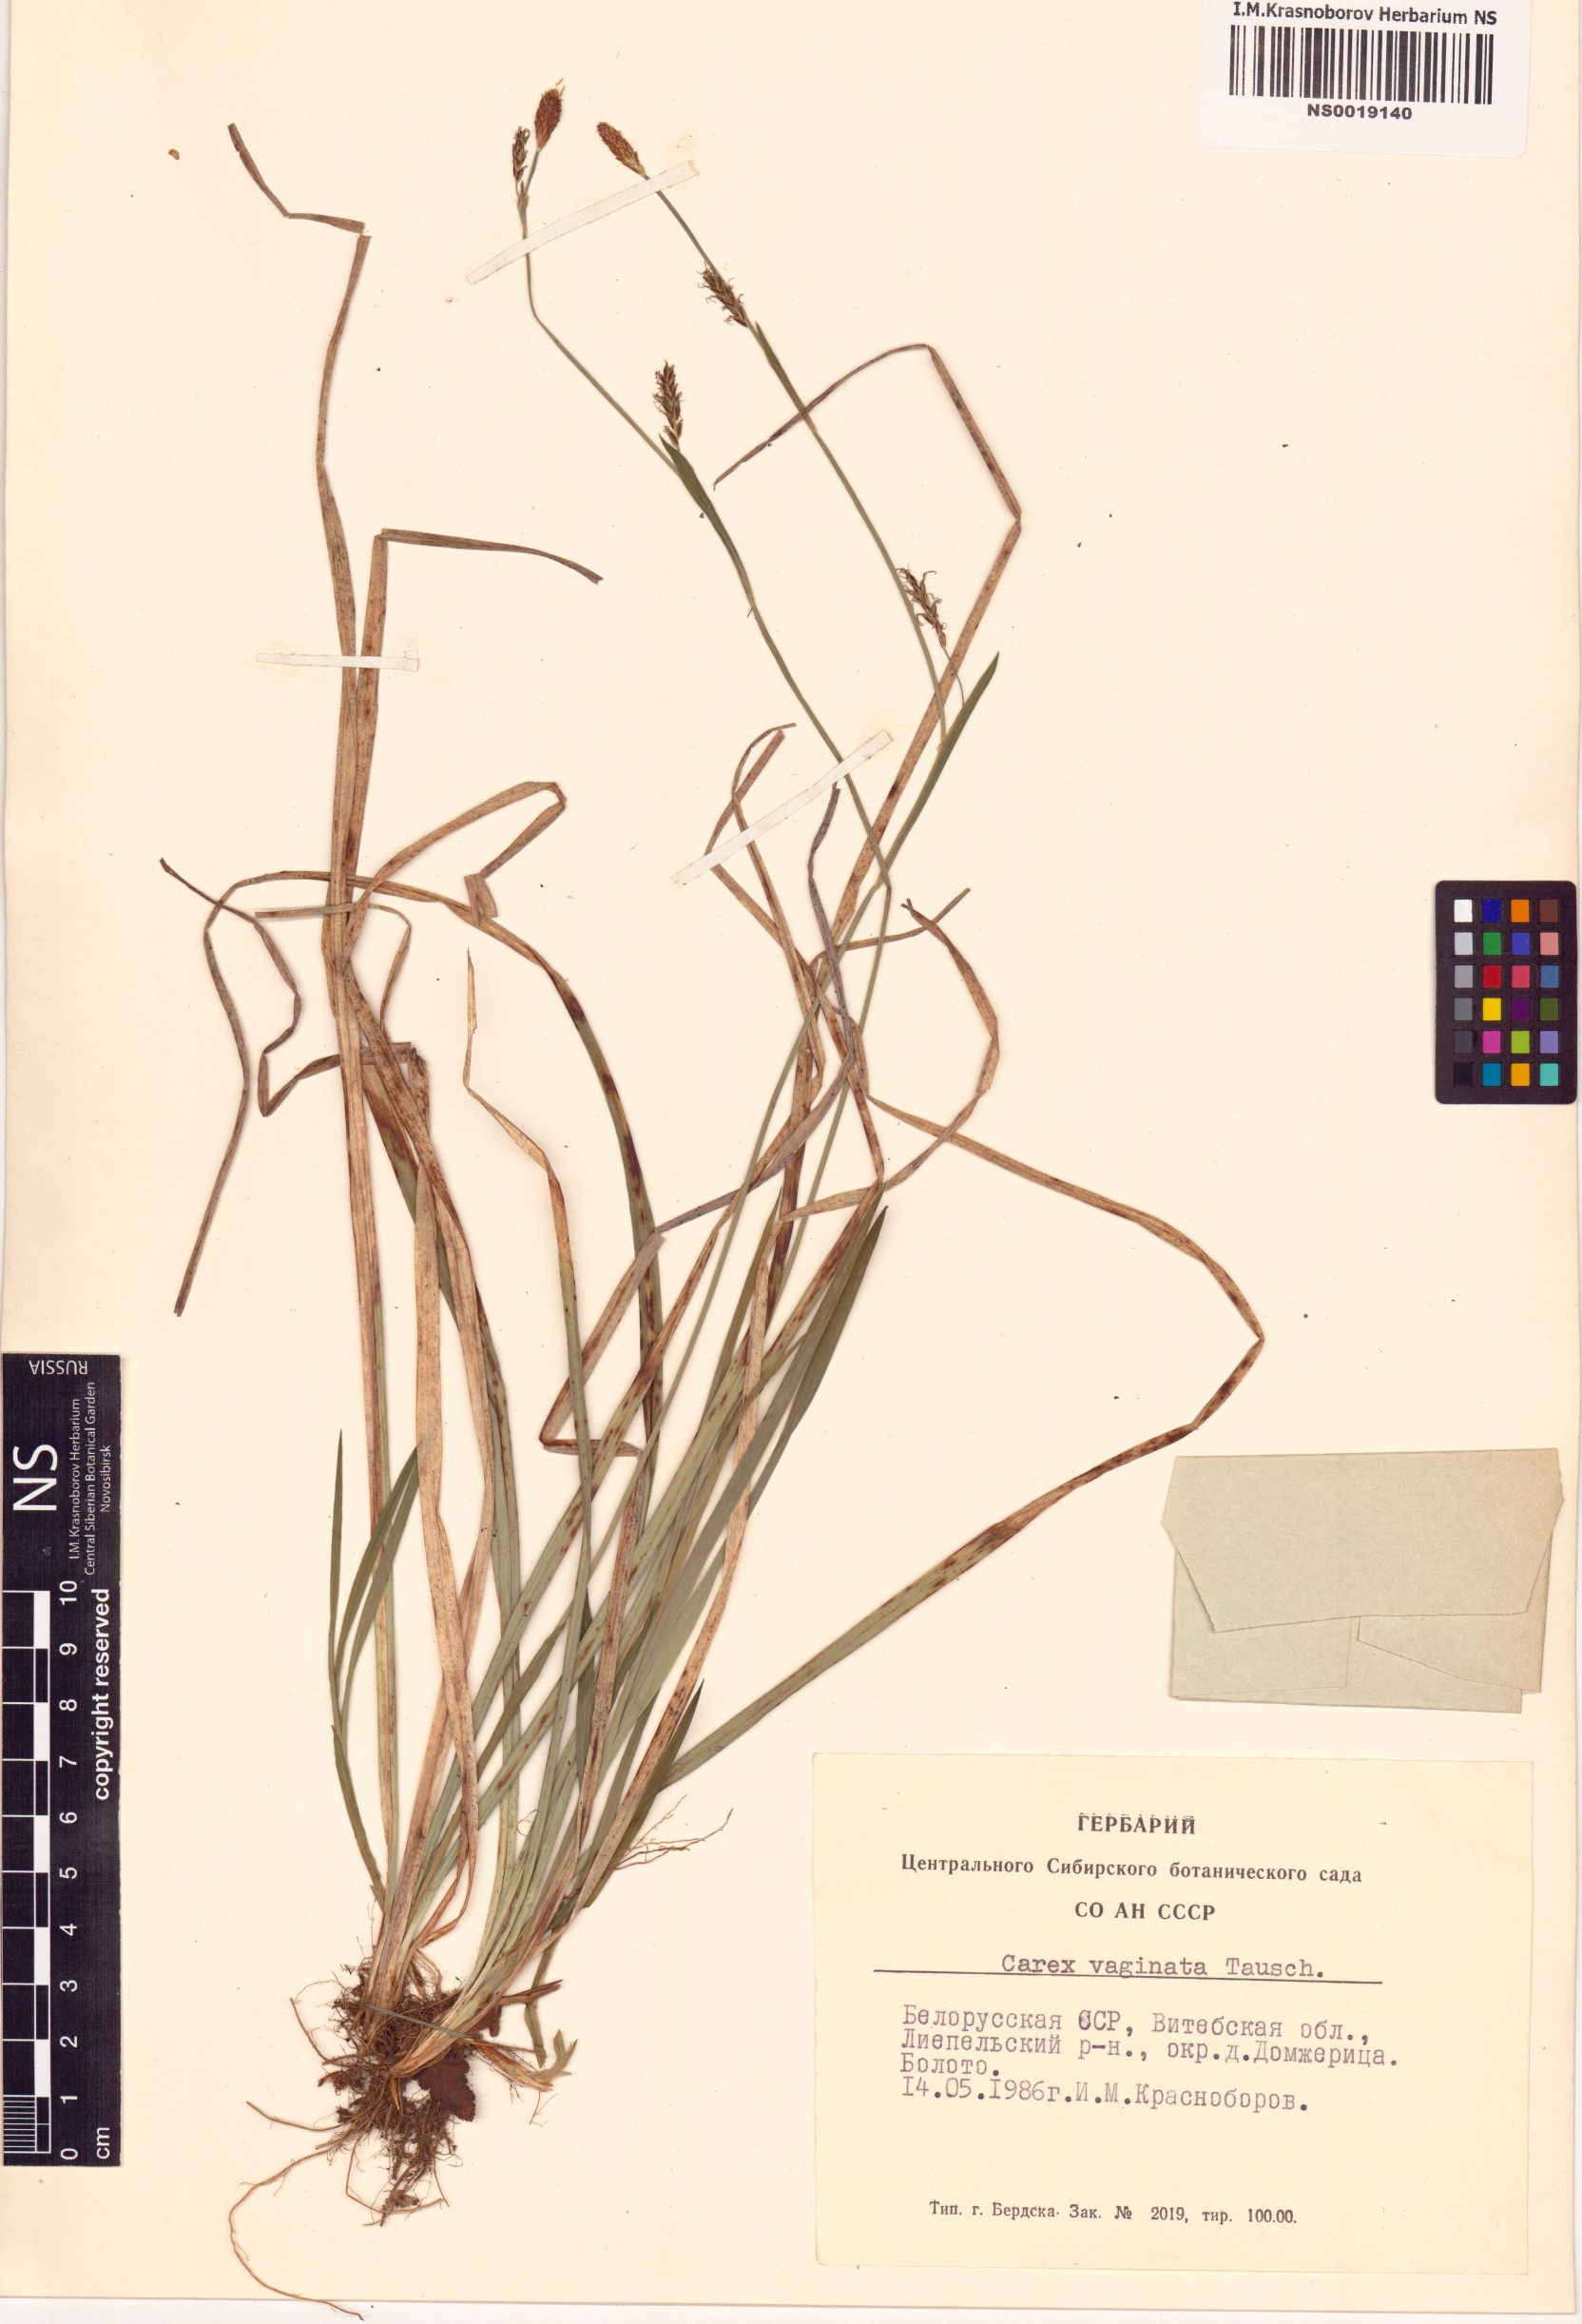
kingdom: Plantae
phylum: Tracheophyta
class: Liliopsida
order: Poales
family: Cyperaceae
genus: Carex
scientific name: Carex vaginata
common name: Sheathed sedge
